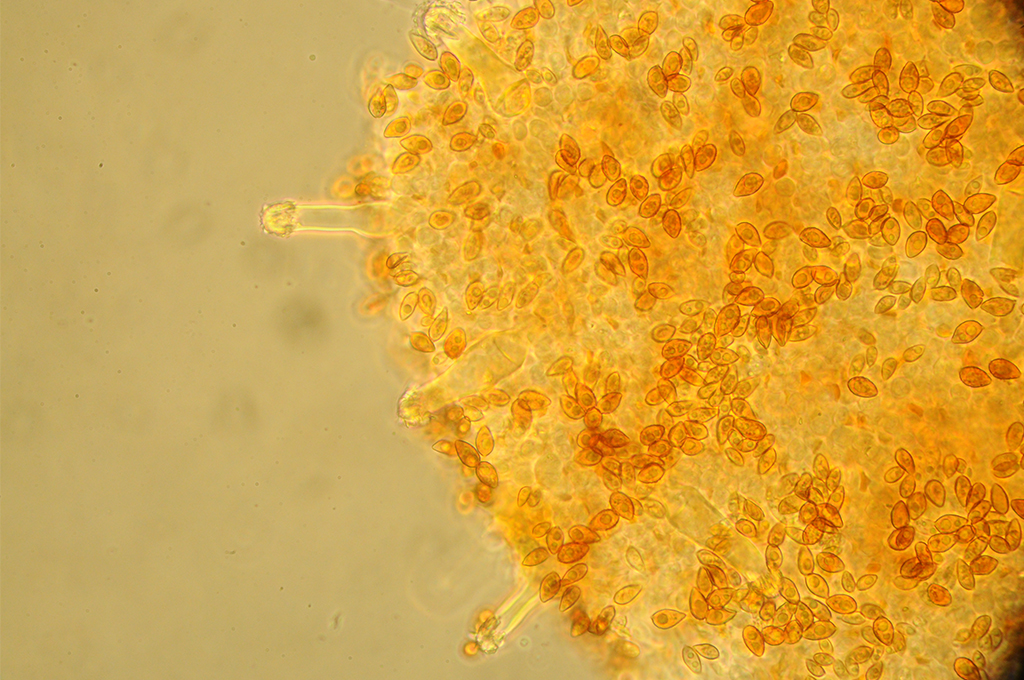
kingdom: Fungi
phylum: Basidiomycota
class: Agaricomycetes
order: Agaricales
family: Hymenogastraceae
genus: Galerina
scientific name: Galerina nana
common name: dværg-hjelmhat
